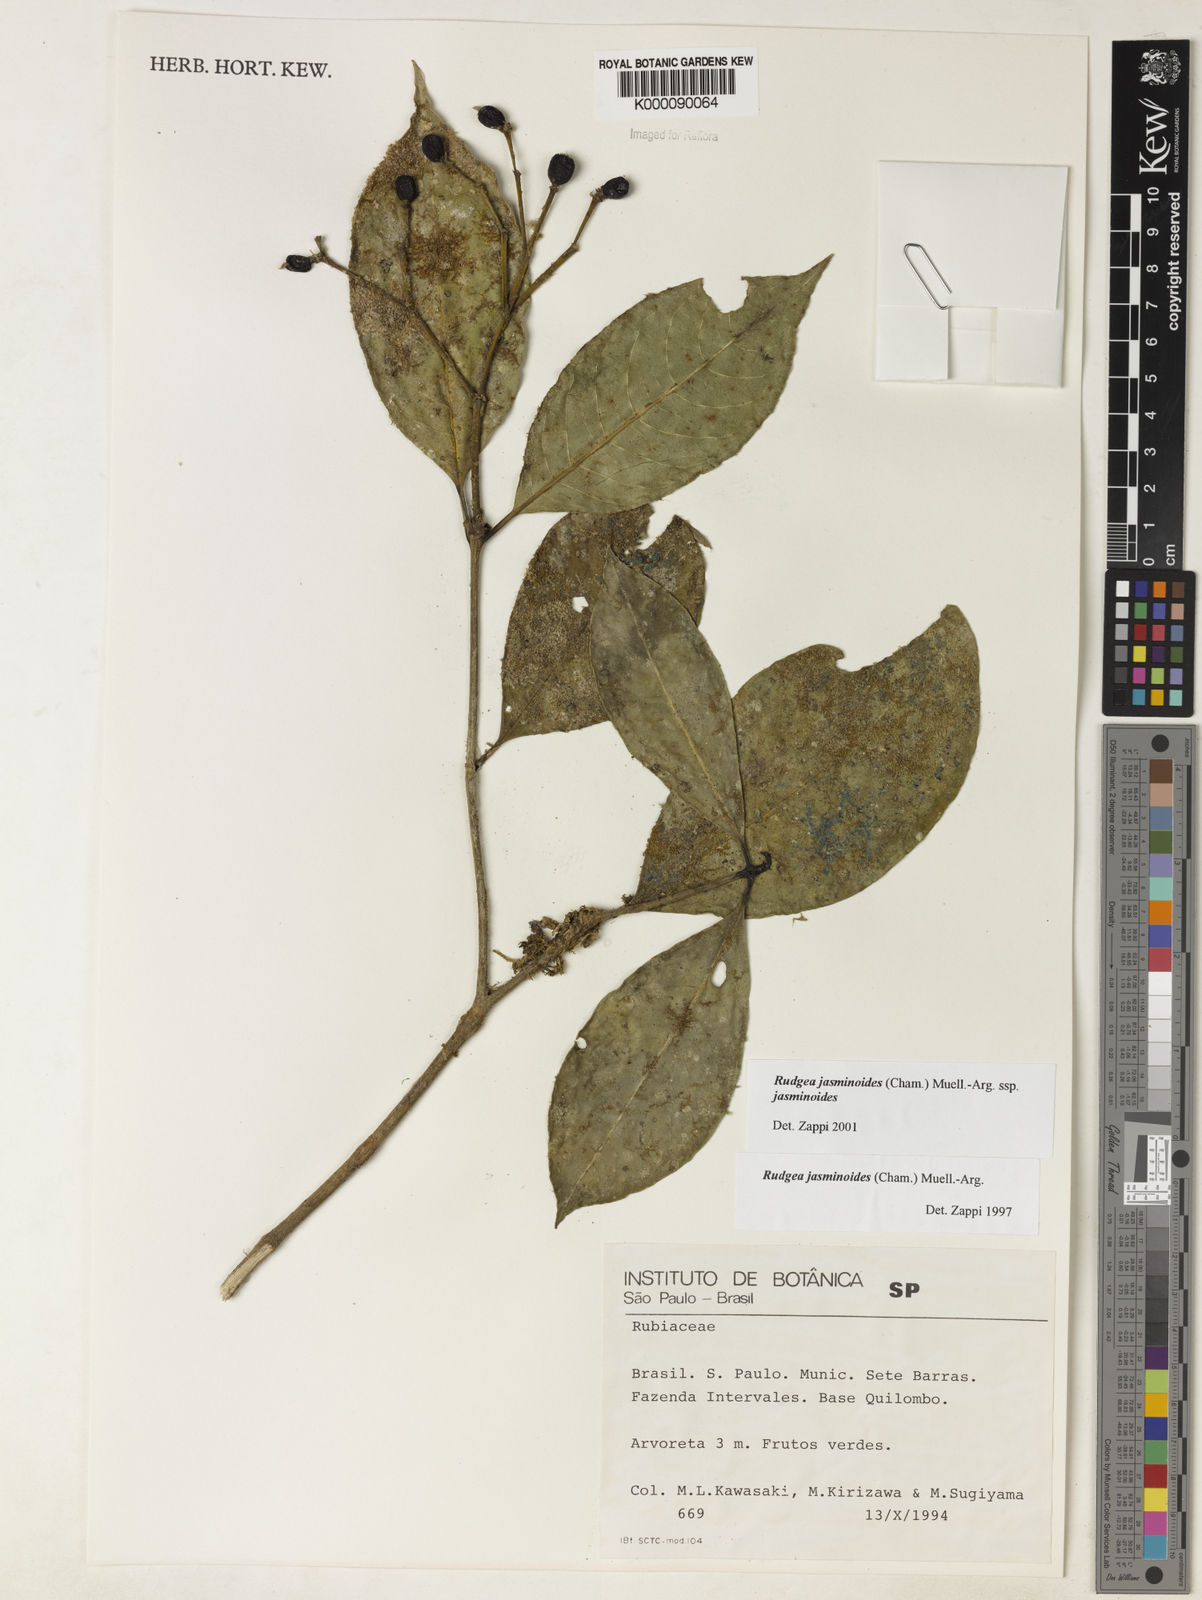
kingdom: Plantae
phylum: Tracheophyta
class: Magnoliopsida
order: Gentianales
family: Rubiaceae
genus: Rudgea
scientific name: Rudgea jasminoides
